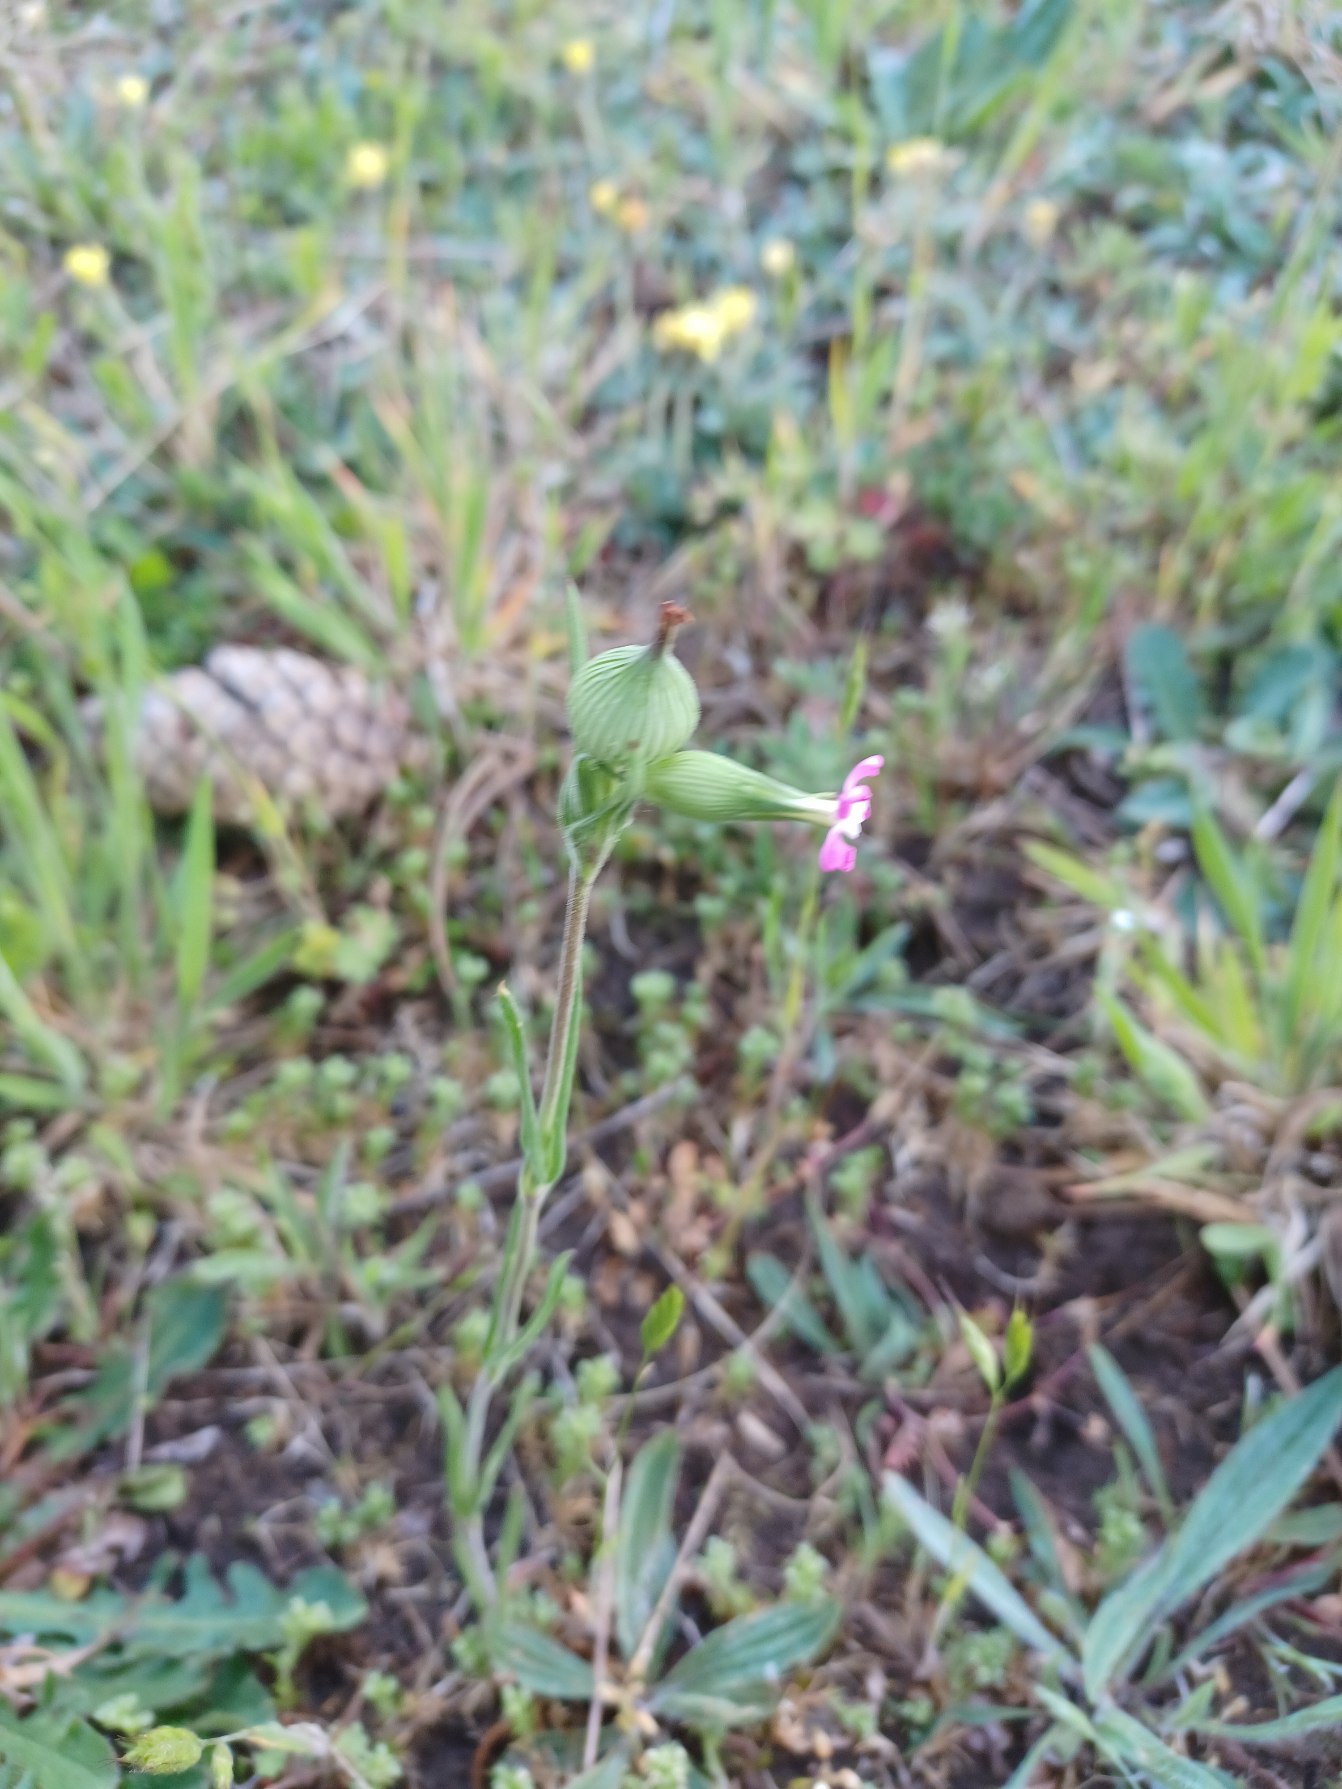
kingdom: Plantae
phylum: Tracheophyta
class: Magnoliopsida
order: Caryophyllales
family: Caryophyllaceae
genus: Silene
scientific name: Silene conica
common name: Kegle-limurt
